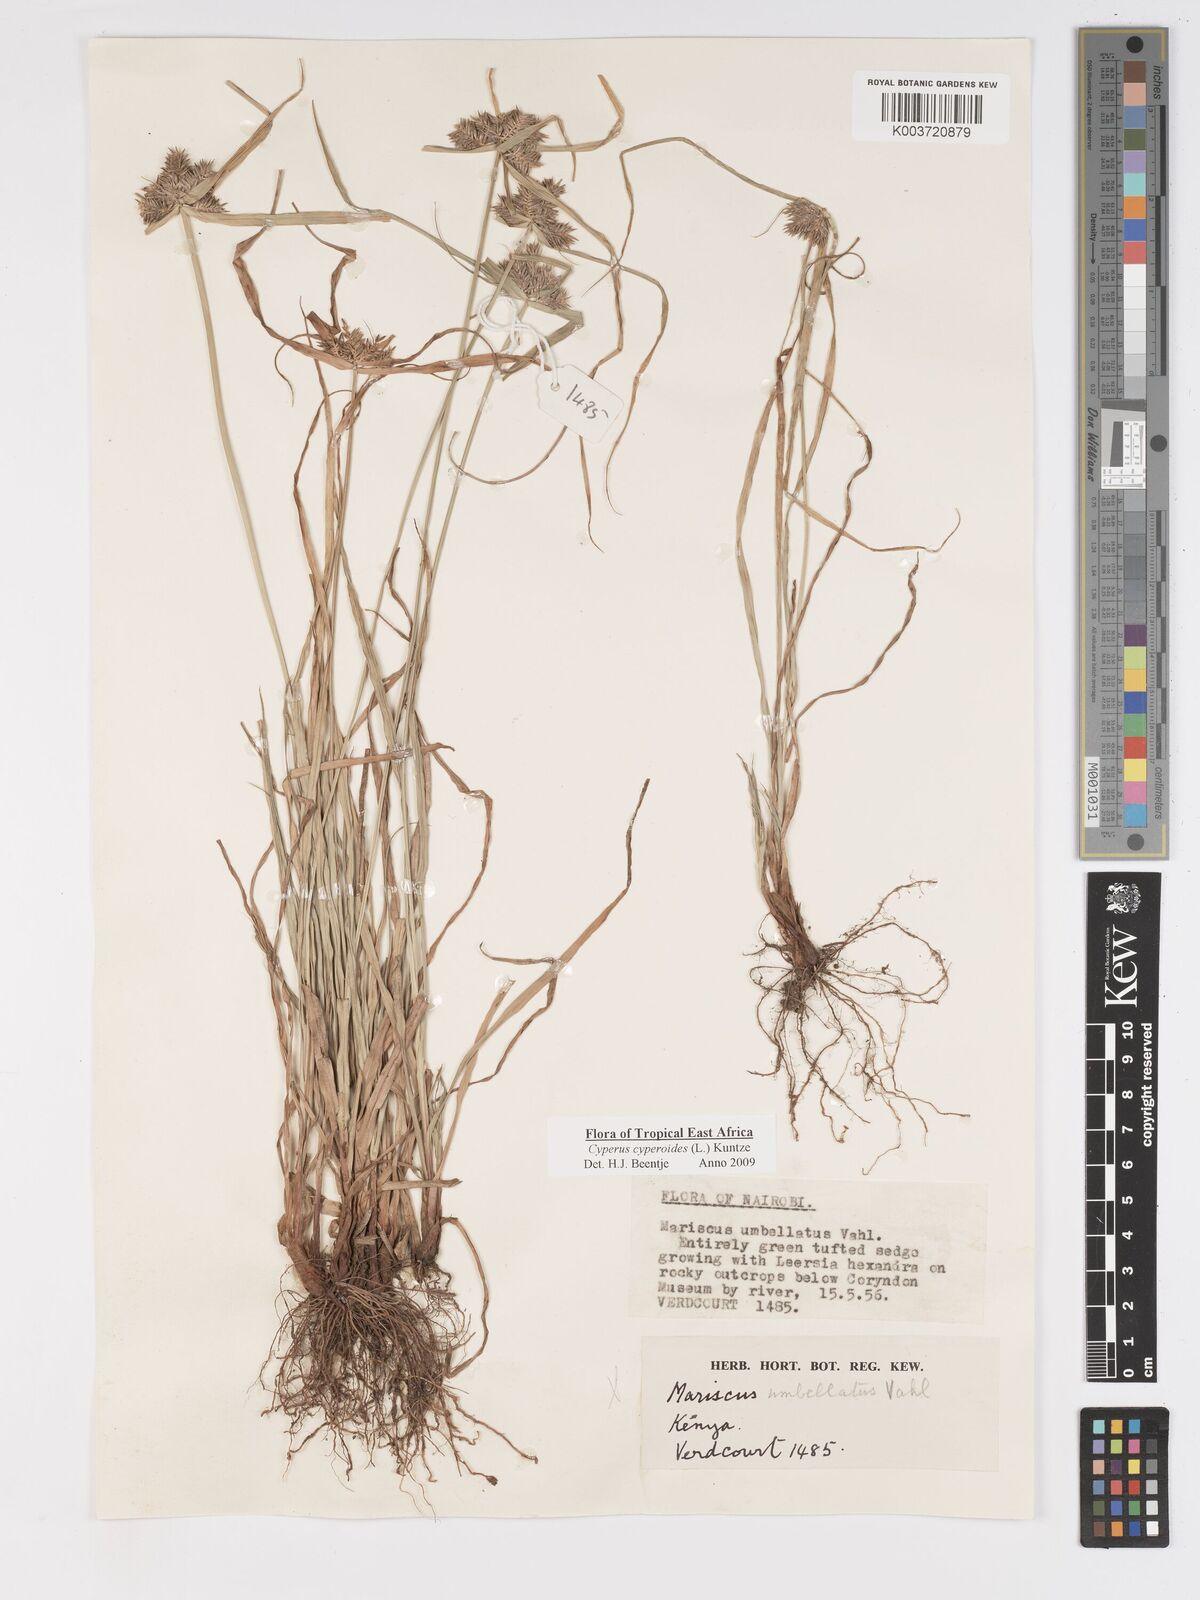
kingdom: Plantae
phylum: Tracheophyta
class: Liliopsida
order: Poales
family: Cyperaceae
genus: Cyperus
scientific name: Cyperus macrocarpus
